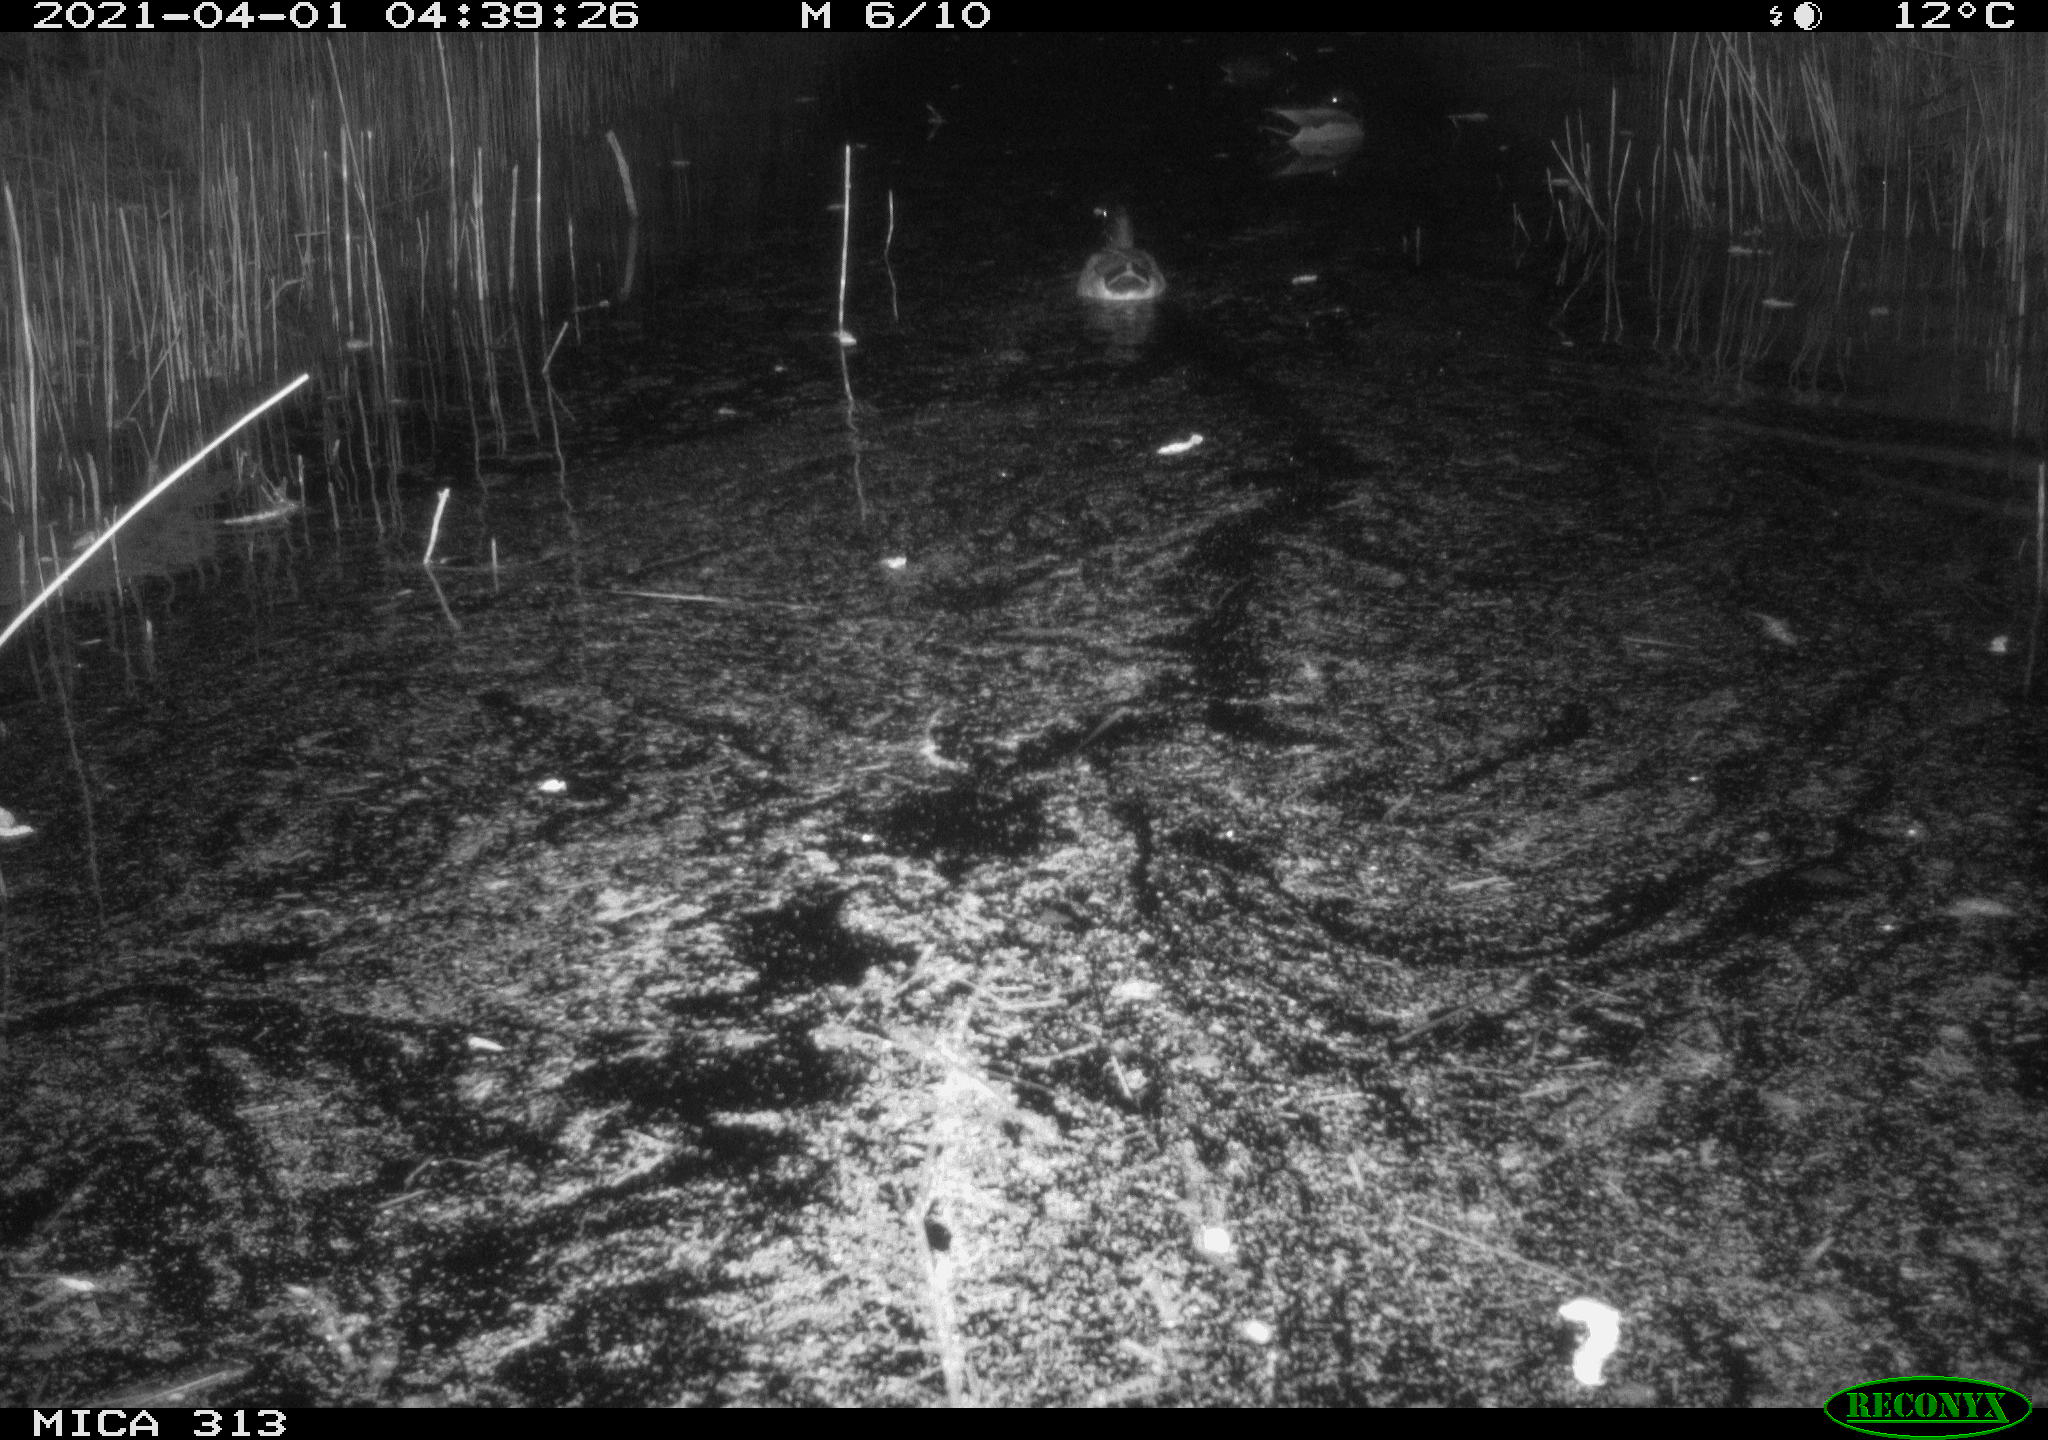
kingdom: Animalia
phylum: Chordata
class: Aves
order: Anseriformes
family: Anatidae
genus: Anas
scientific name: Anas platyrhynchos
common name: Mallard
